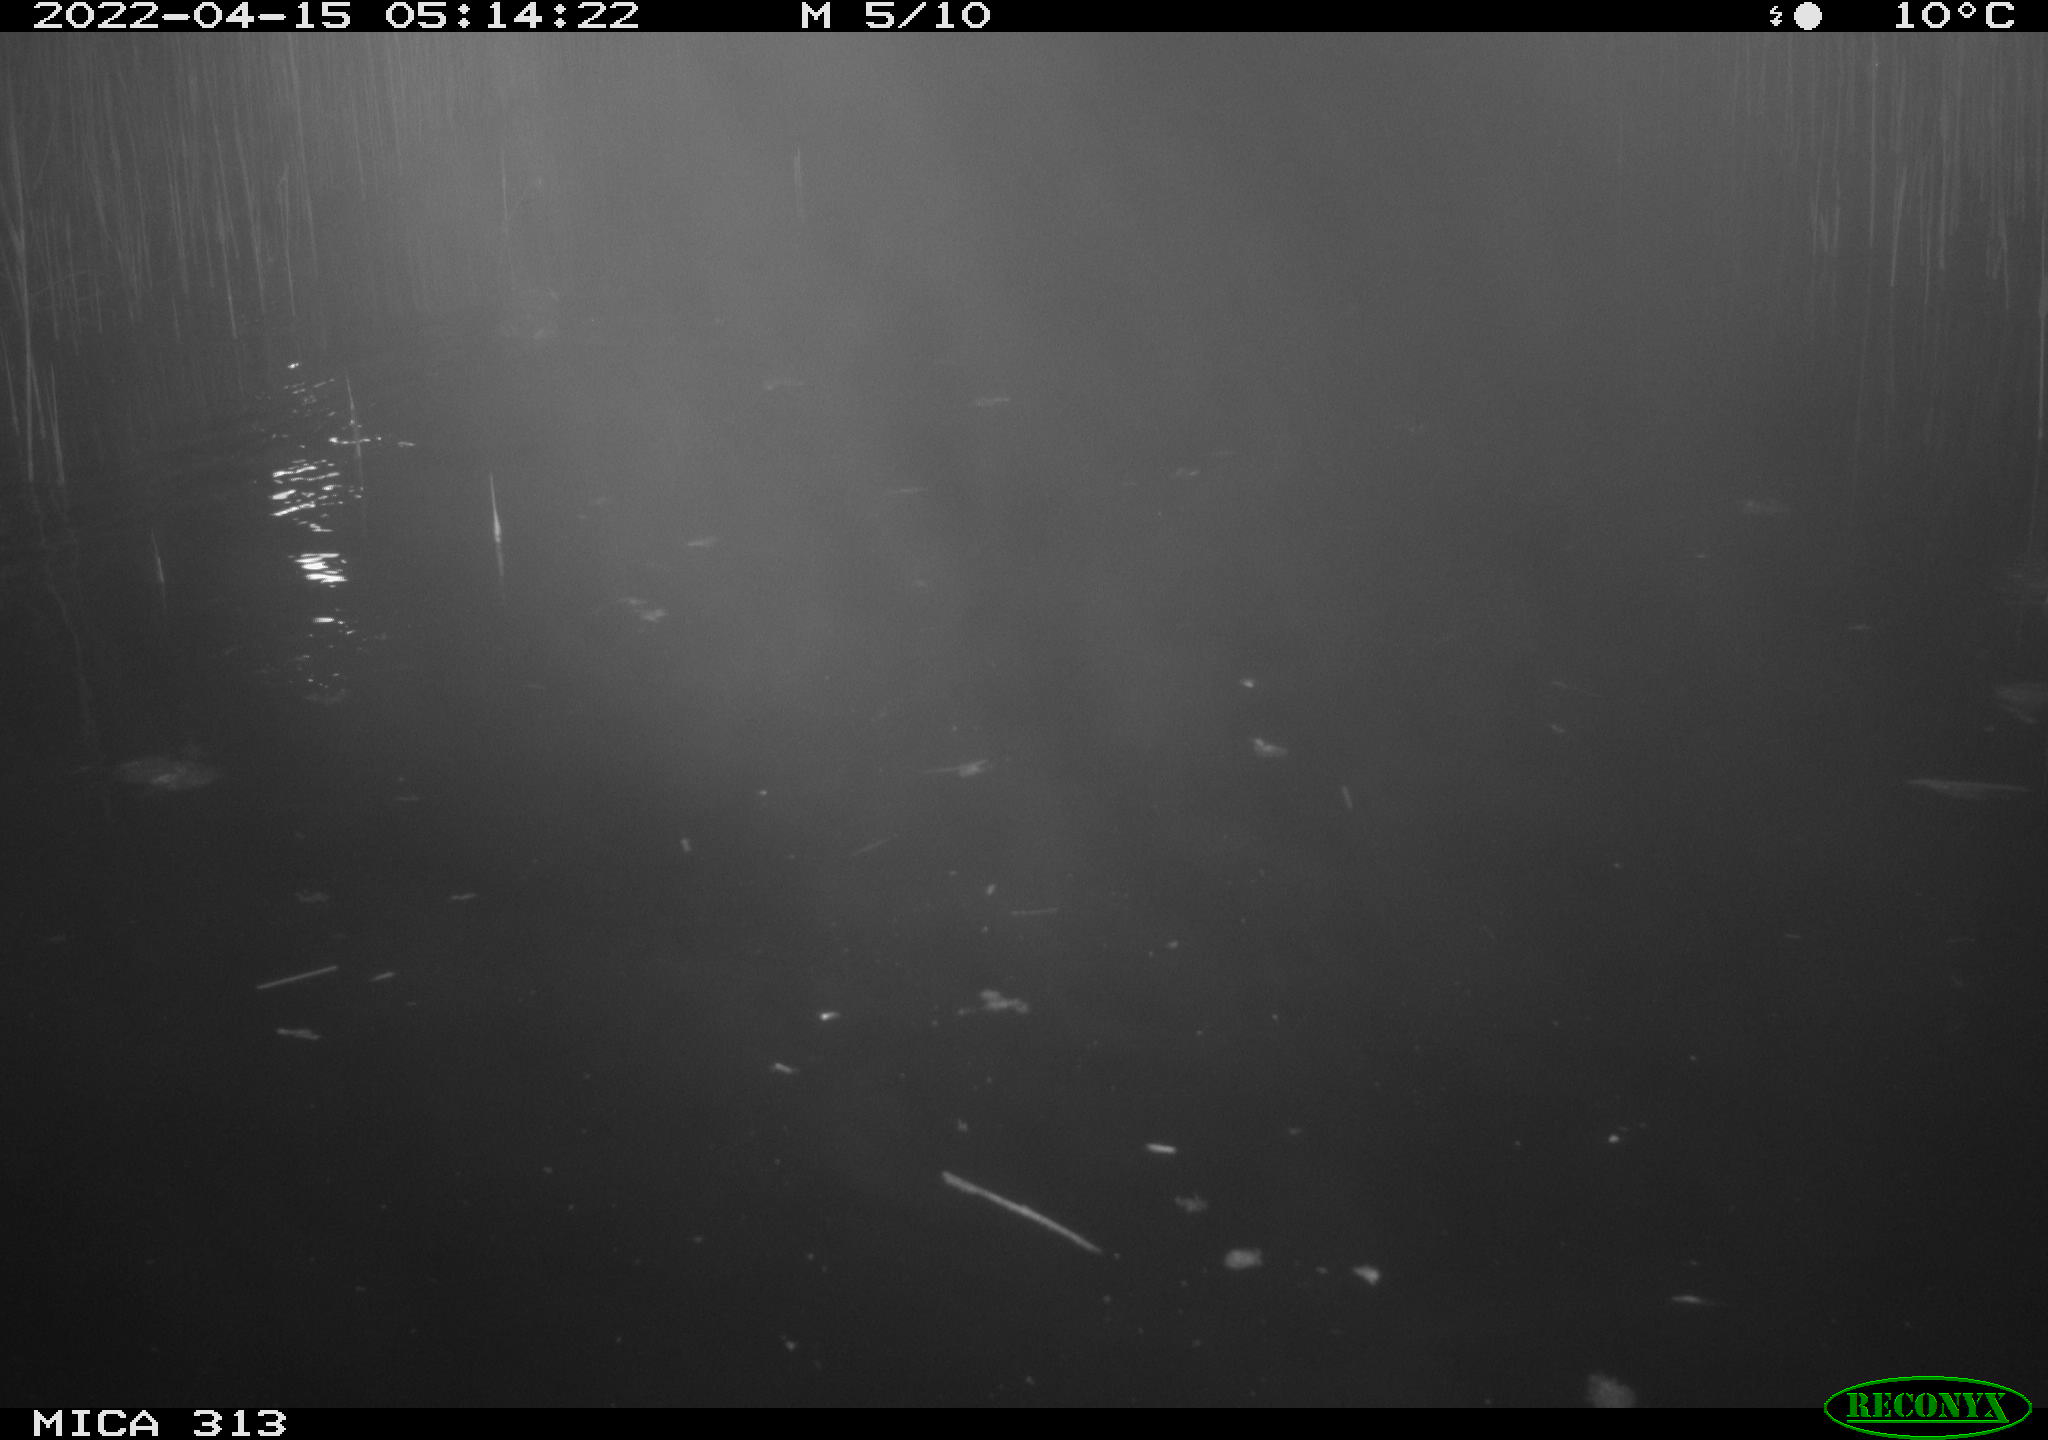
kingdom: Animalia
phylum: Chordata
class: Mammalia
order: Rodentia
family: Cricetidae
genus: Ondatra
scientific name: Ondatra zibethicus
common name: Muskrat
